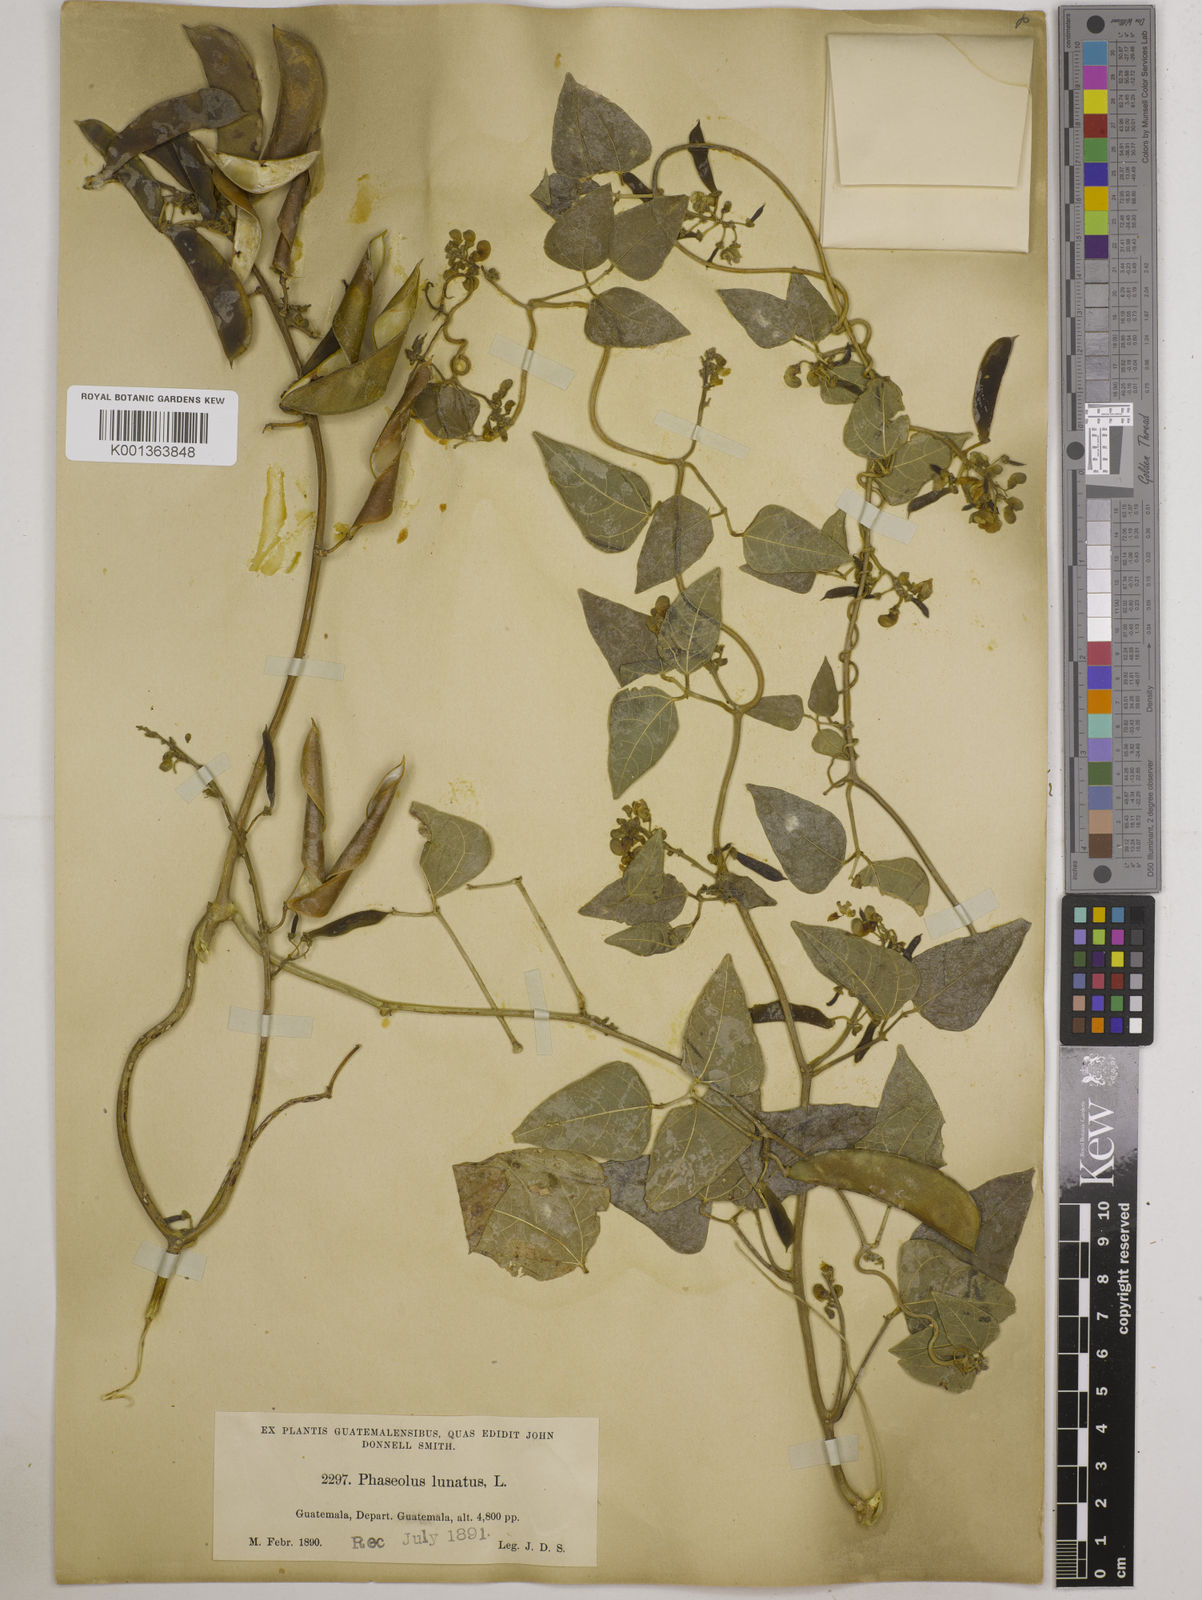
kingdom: Plantae
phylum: Tracheophyta
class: Magnoliopsida
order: Fabales
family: Fabaceae
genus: Phaseolus
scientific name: Phaseolus lunatus
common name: Sieva bean
